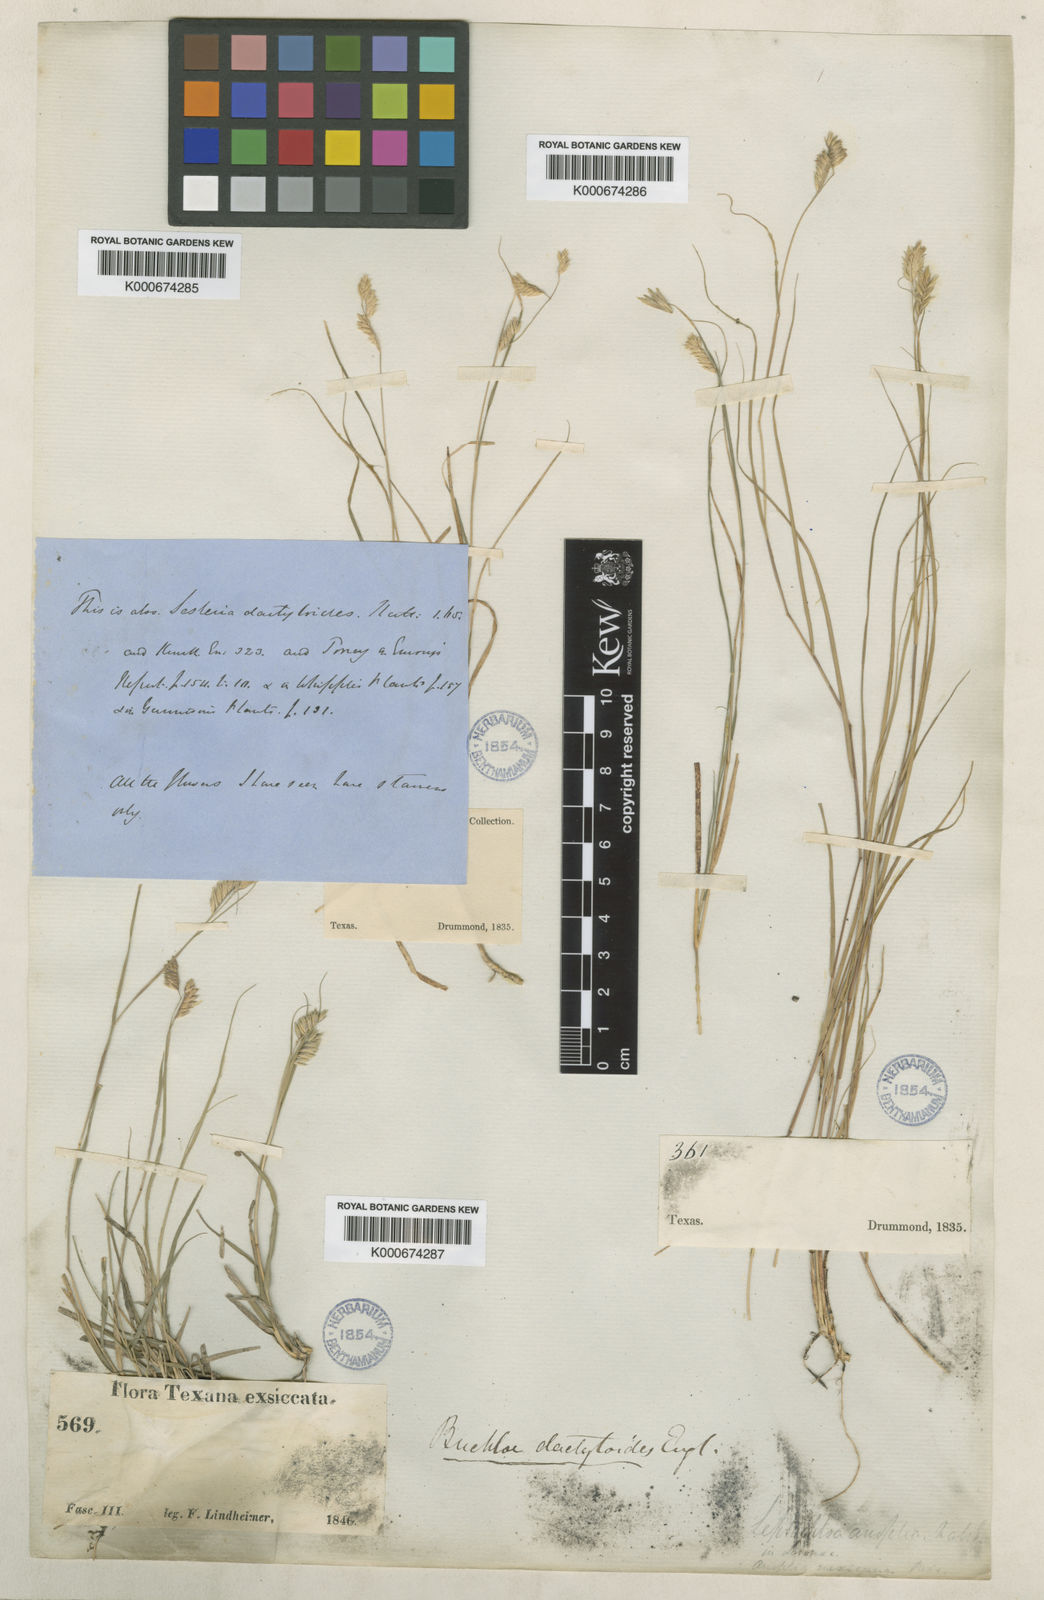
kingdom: Plantae
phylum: Tracheophyta
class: Liliopsida
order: Poales
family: Poaceae
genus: Bouteloua
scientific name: Bouteloua dactyloides
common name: Buffalo grass
